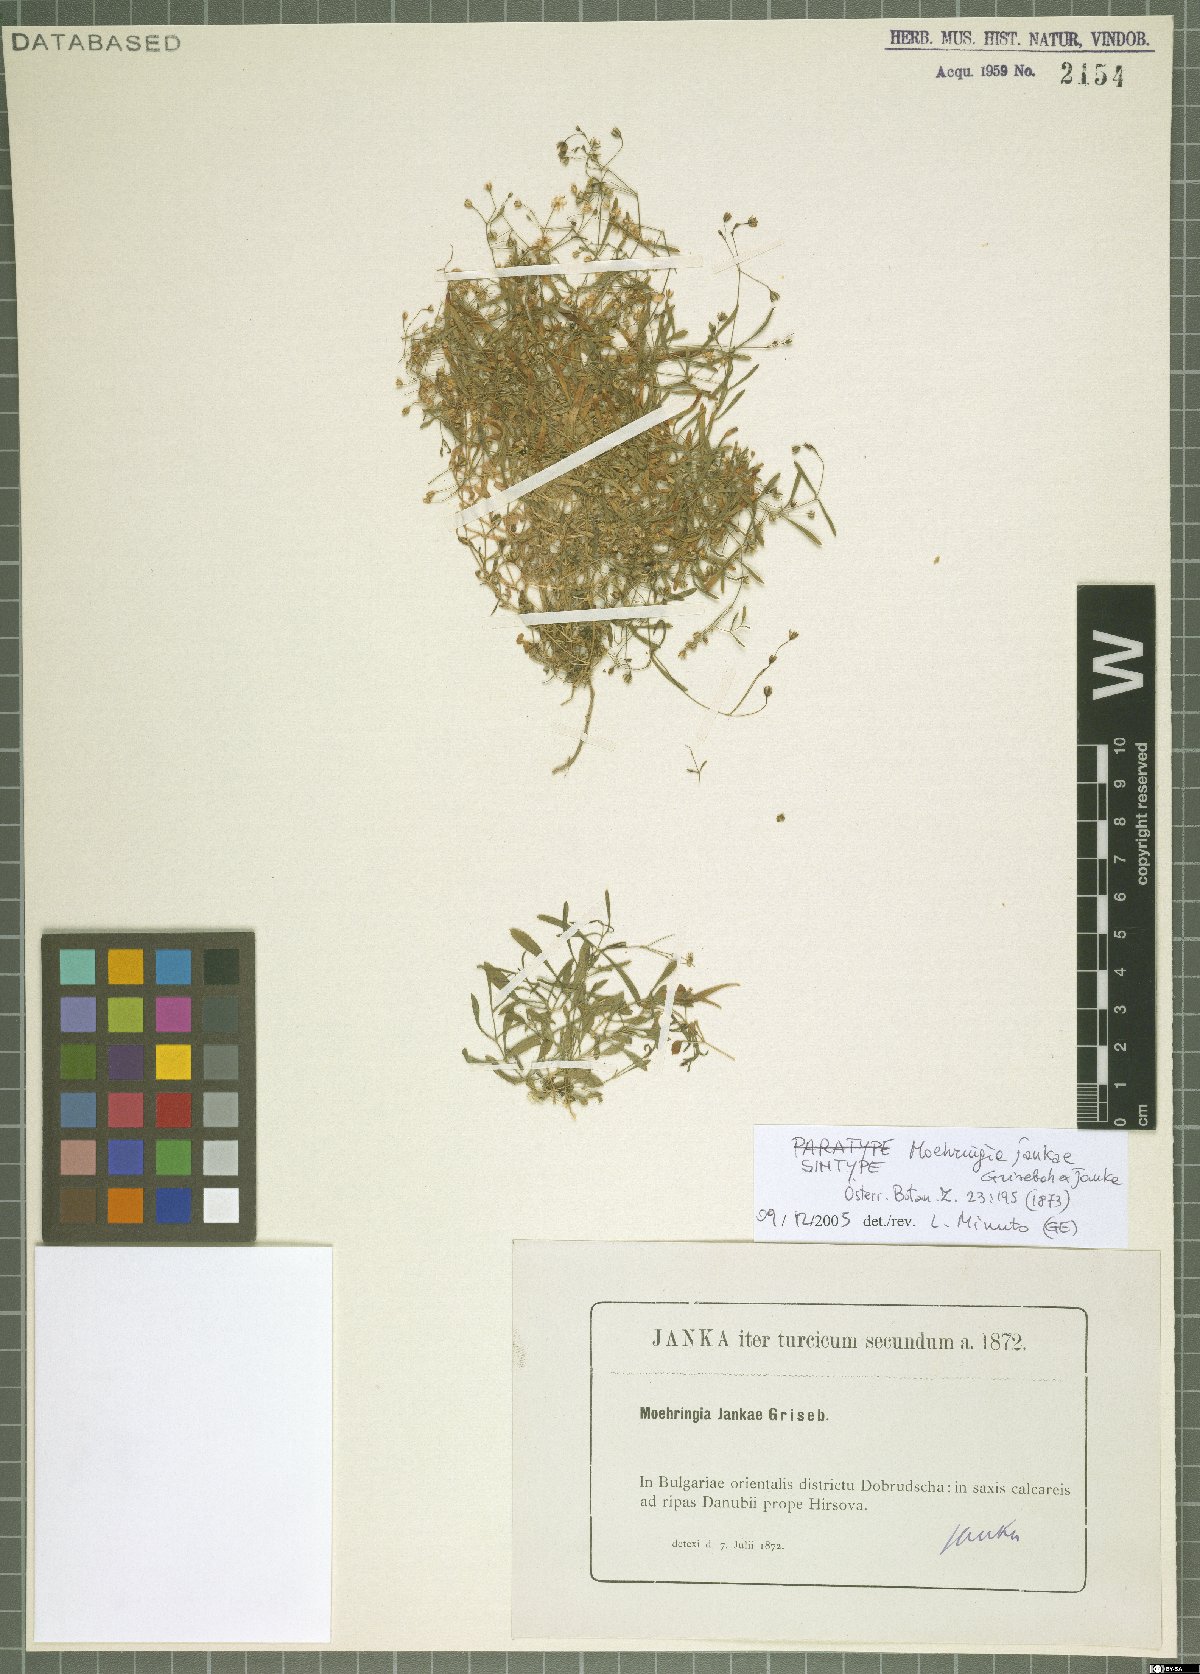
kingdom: Plantae
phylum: Tracheophyta
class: Magnoliopsida
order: Caryophyllales
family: Caryophyllaceae
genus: Moehringia
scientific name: Moehringia jankae
